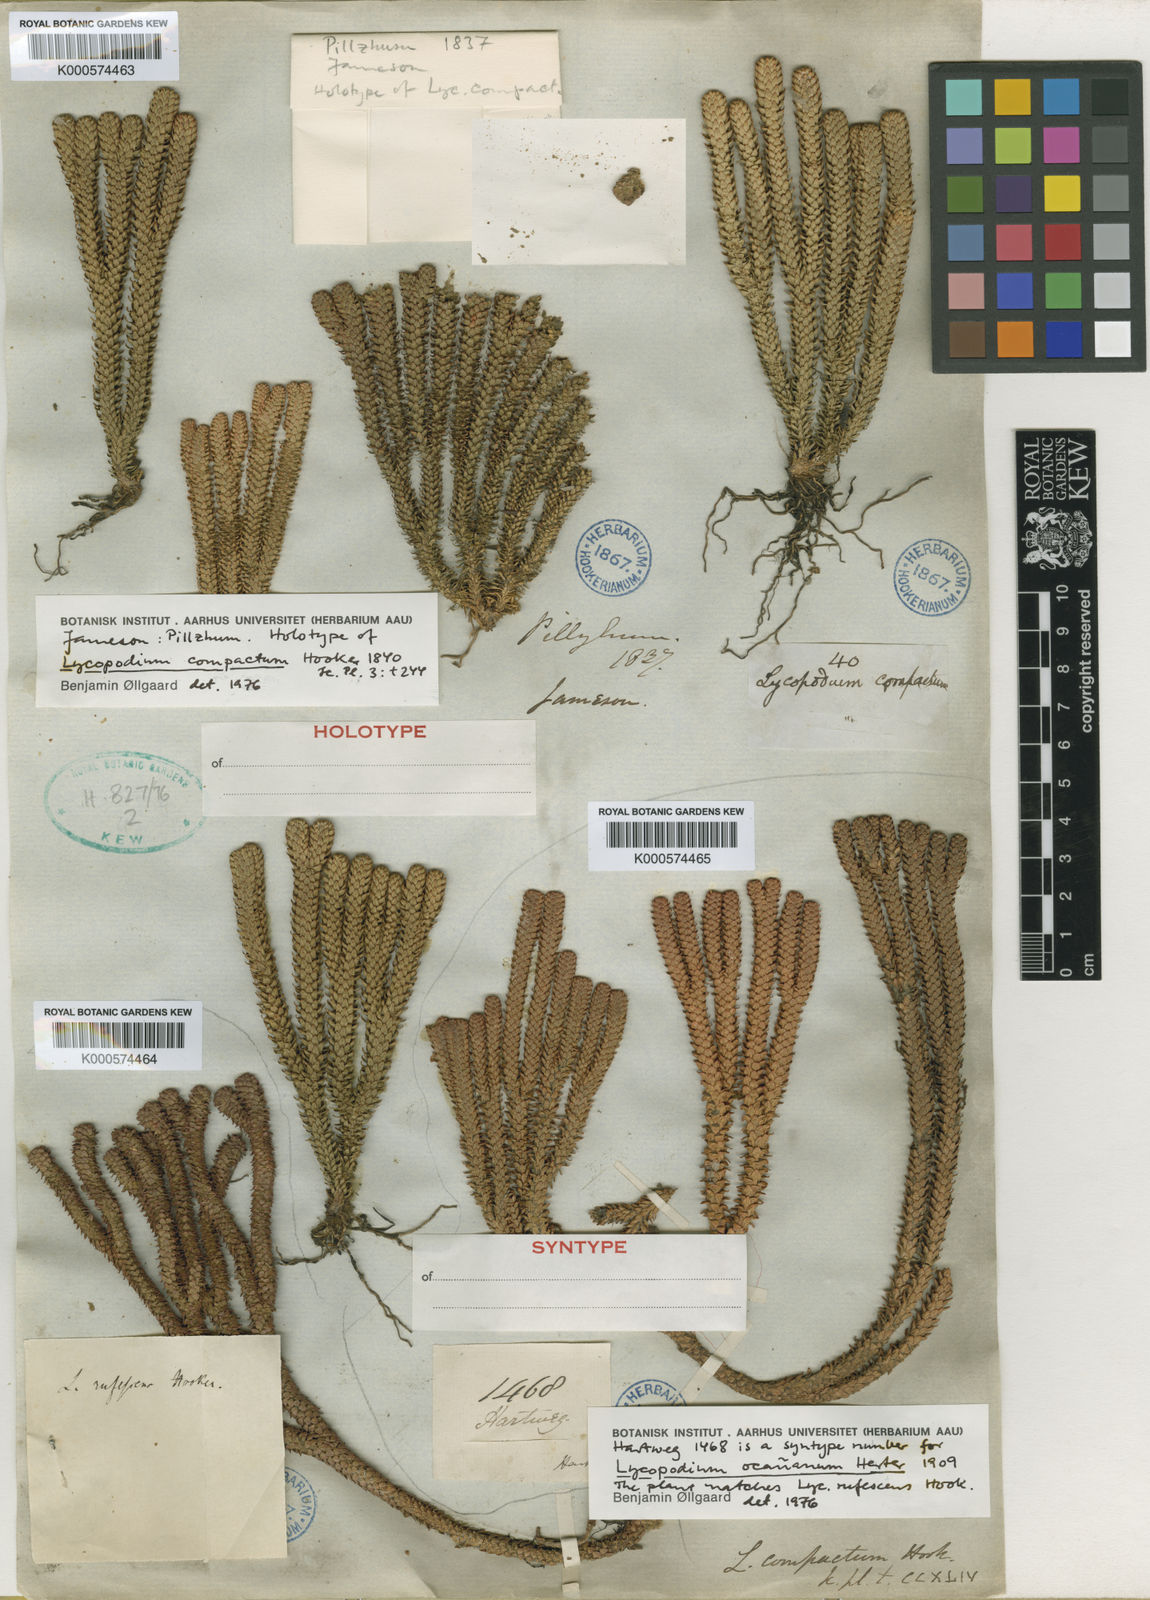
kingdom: Plantae
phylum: Tracheophyta
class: Lycopodiopsida
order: Lycopodiales
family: Lycopodiaceae
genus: Phlegmariurus
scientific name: Phlegmariurus compactus
